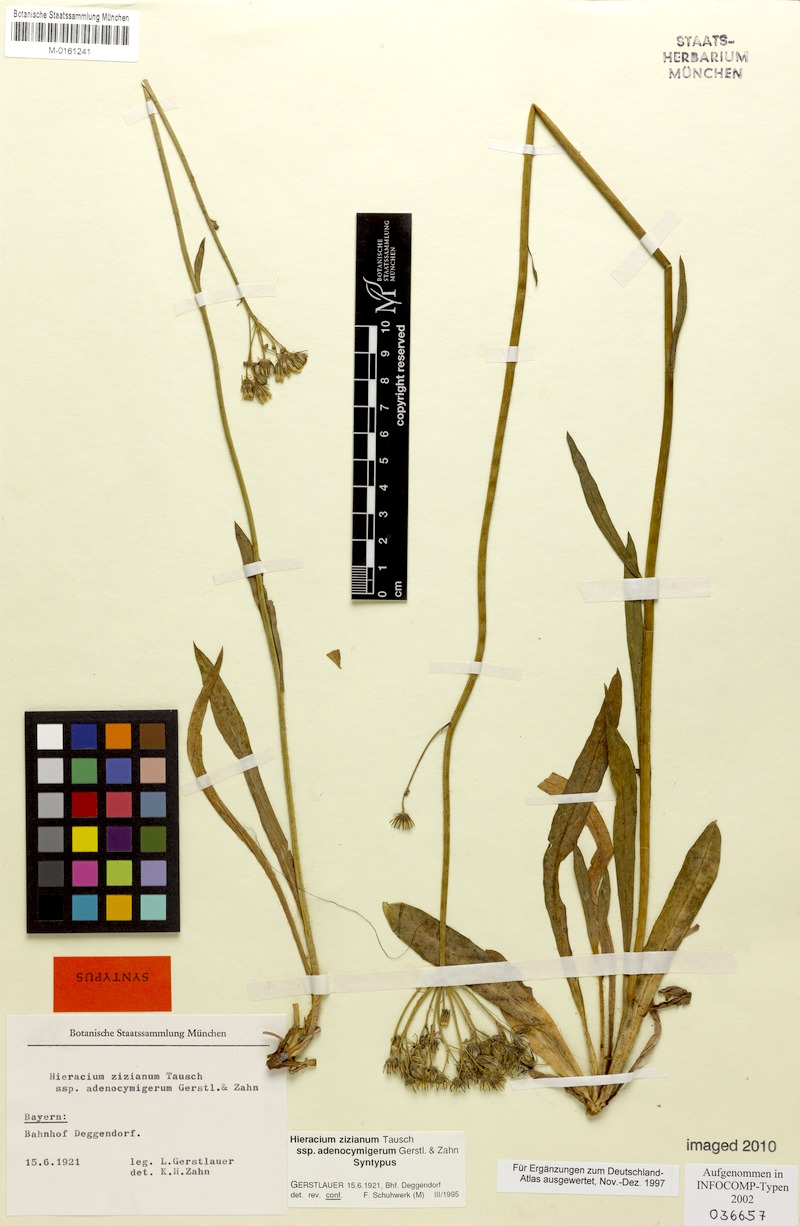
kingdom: Plantae
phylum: Tracheophyta
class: Magnoliopsida
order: Asterales
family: Asteraceae
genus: Pilosella
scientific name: Pilosella ziziana
